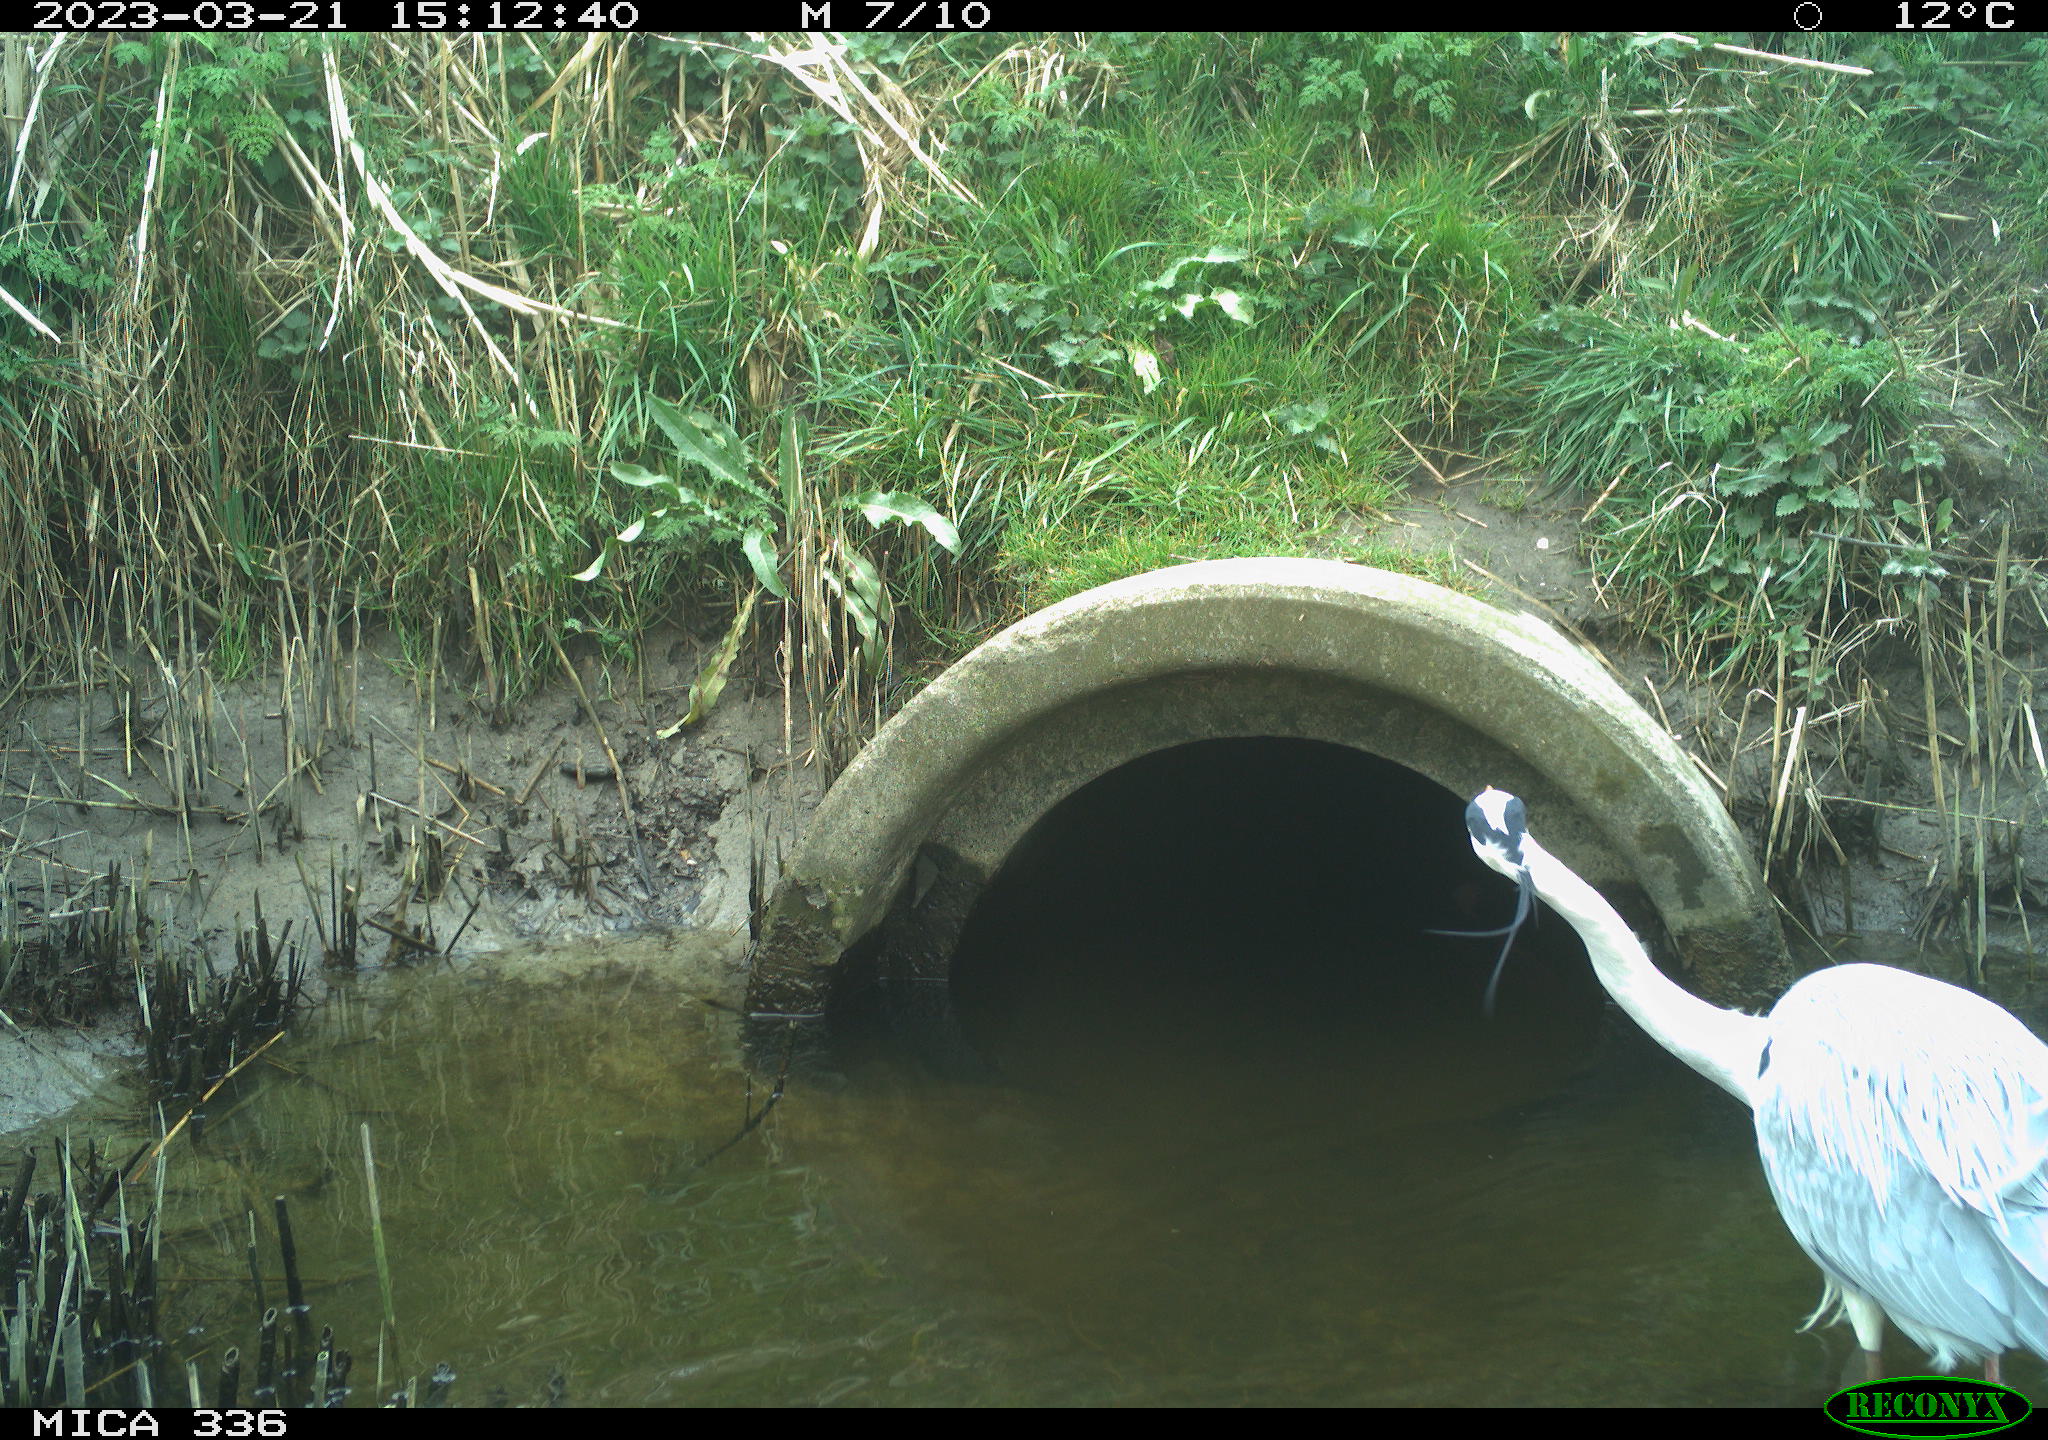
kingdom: Animalia
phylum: Chordata
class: Aves
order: Pelecaniformes
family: Ardeidae
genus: Ardea
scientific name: Ardea
